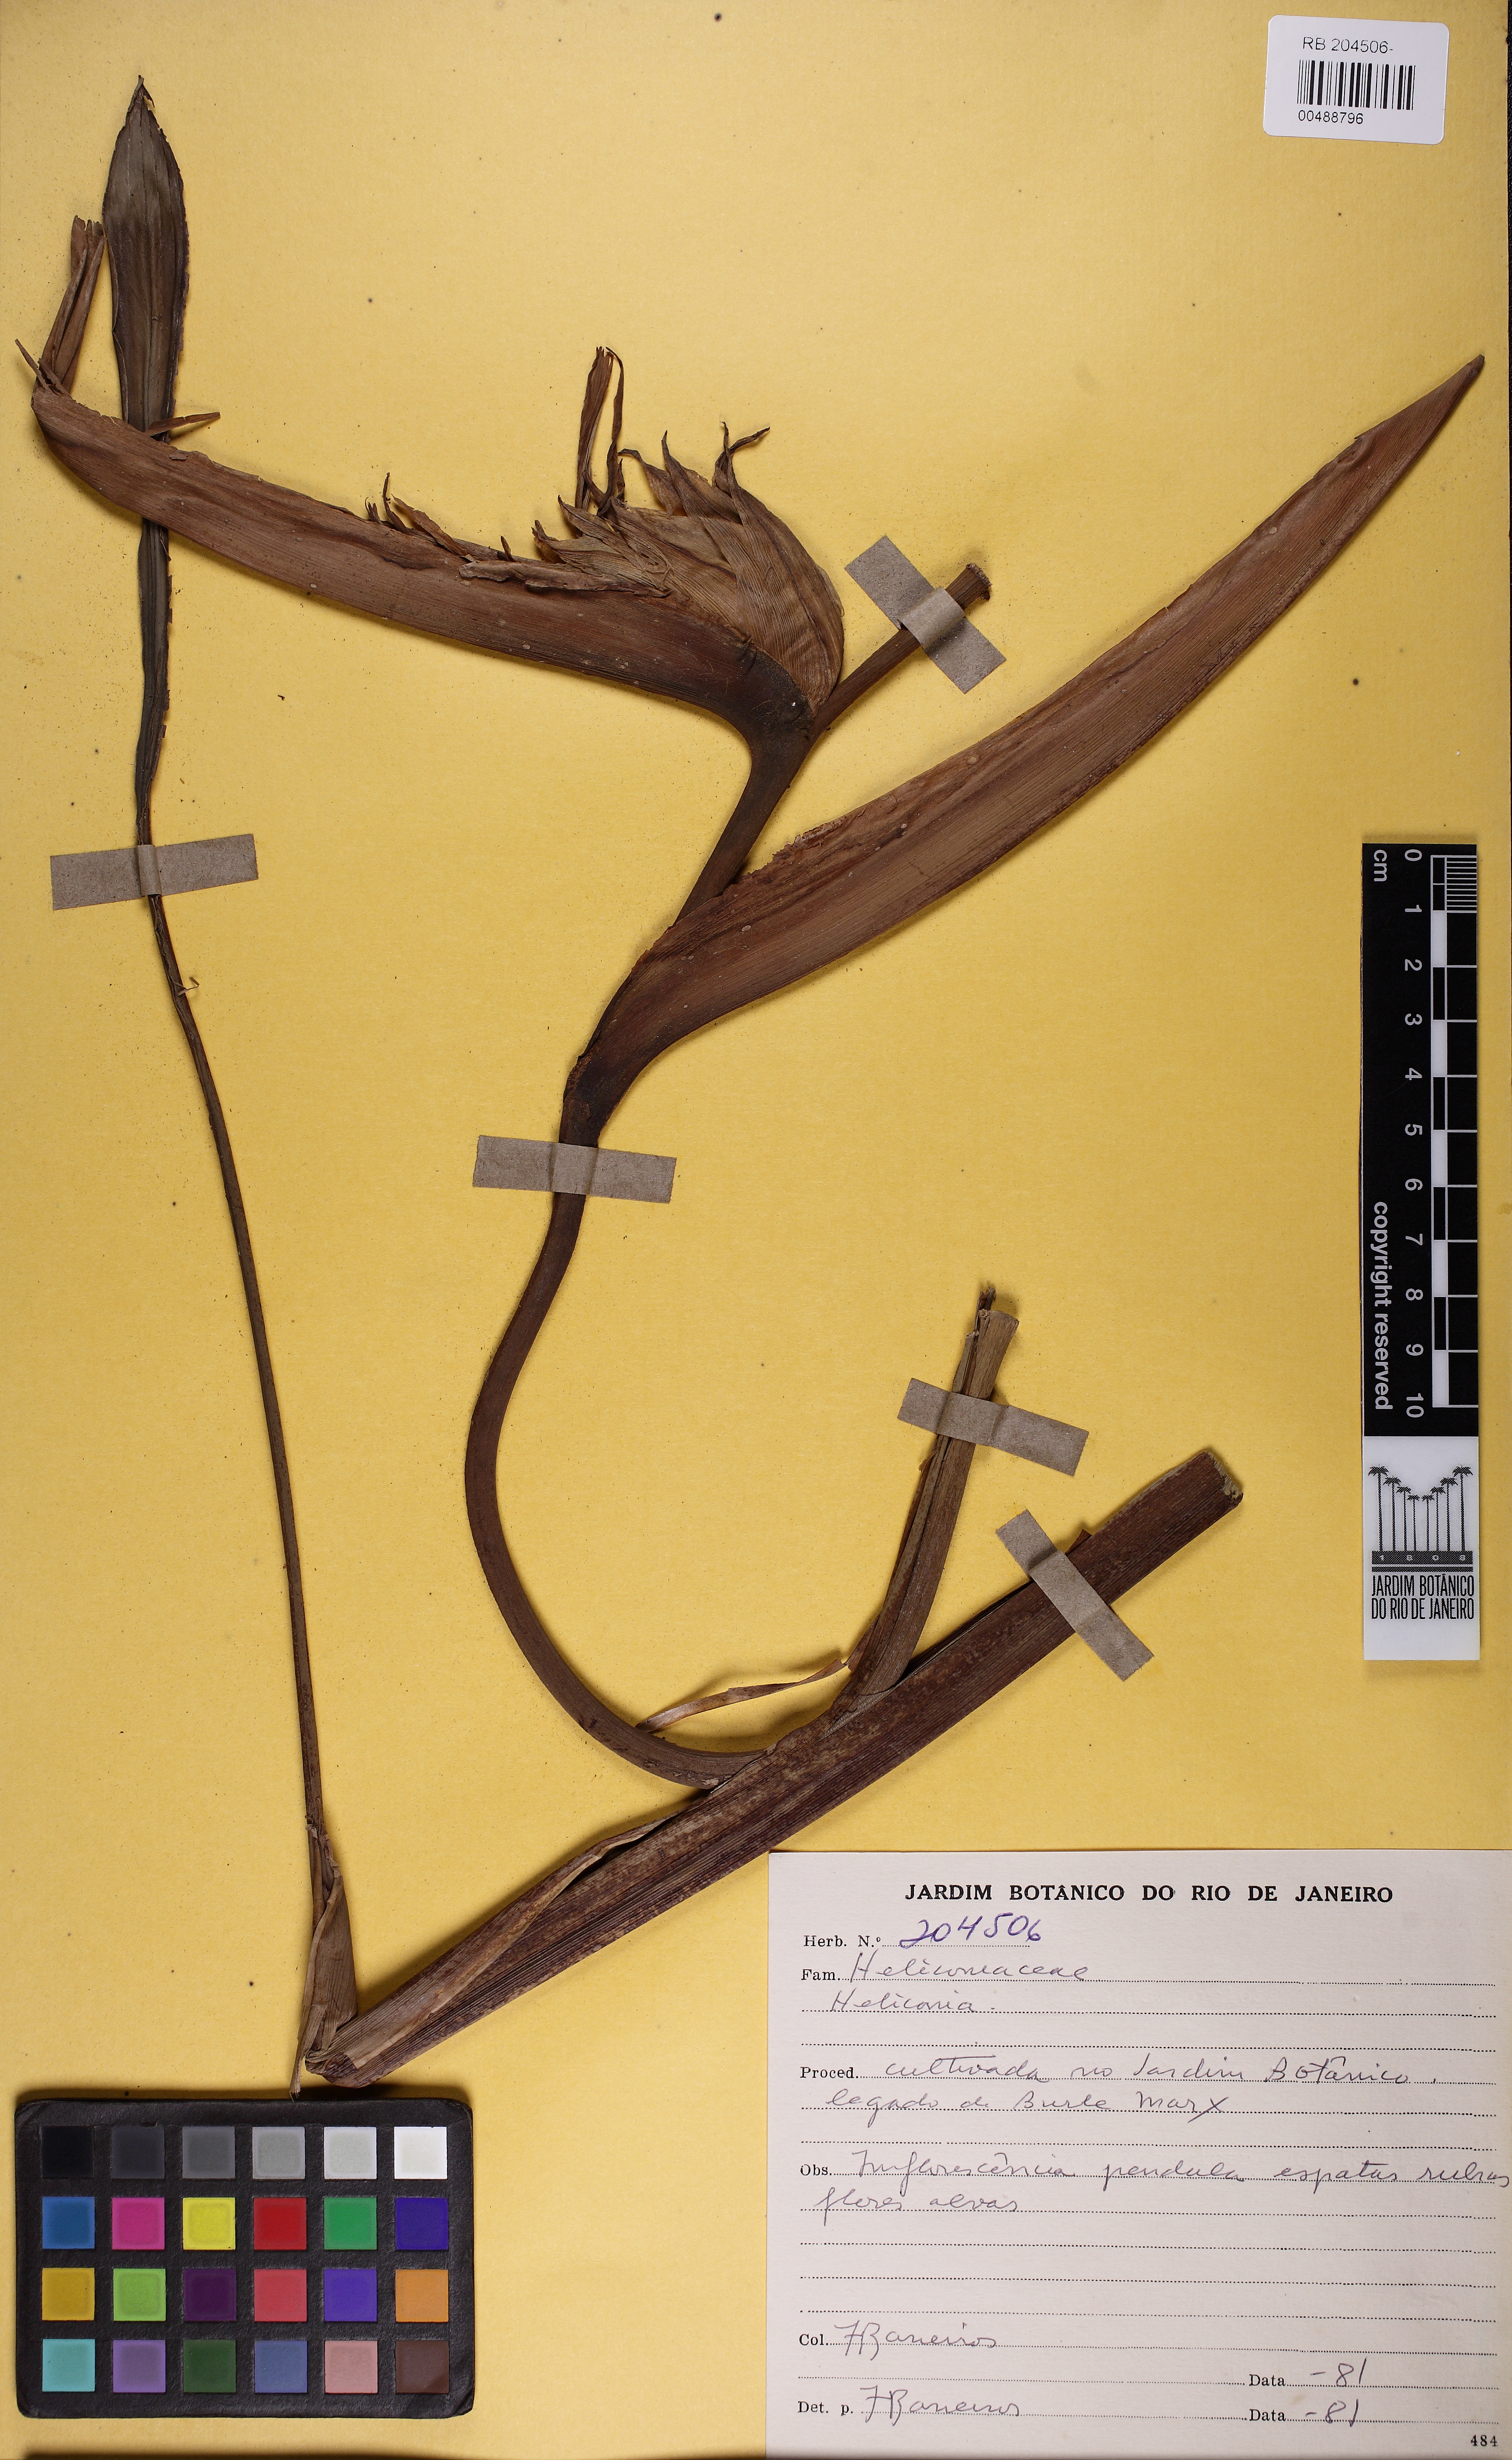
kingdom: Plantae
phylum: Tracheophyta
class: Liliopsida
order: Zingiberales
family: Heliconiaceae
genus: Heliconia
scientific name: Heliconia pendula
